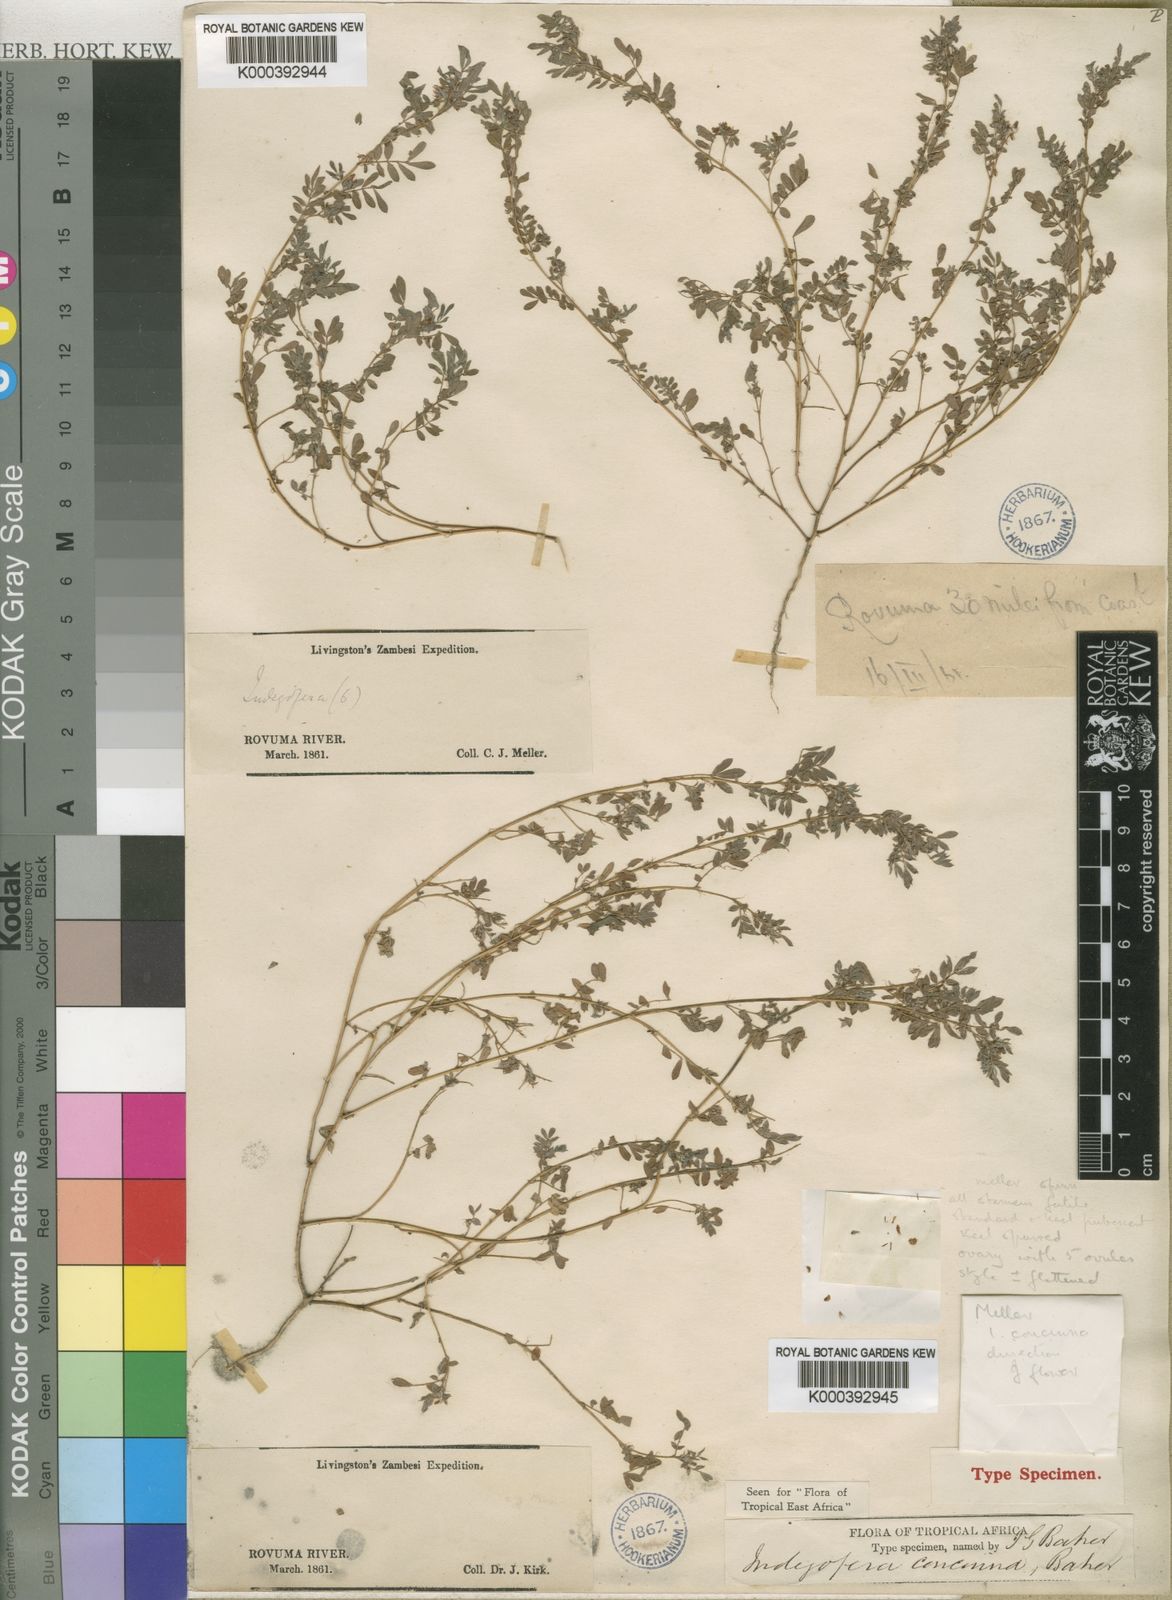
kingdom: Plantae
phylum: Tracheophyta
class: Magnoliopsida
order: Fabales
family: Fabaceae
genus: Indigofera
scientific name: Indigofera concinna
